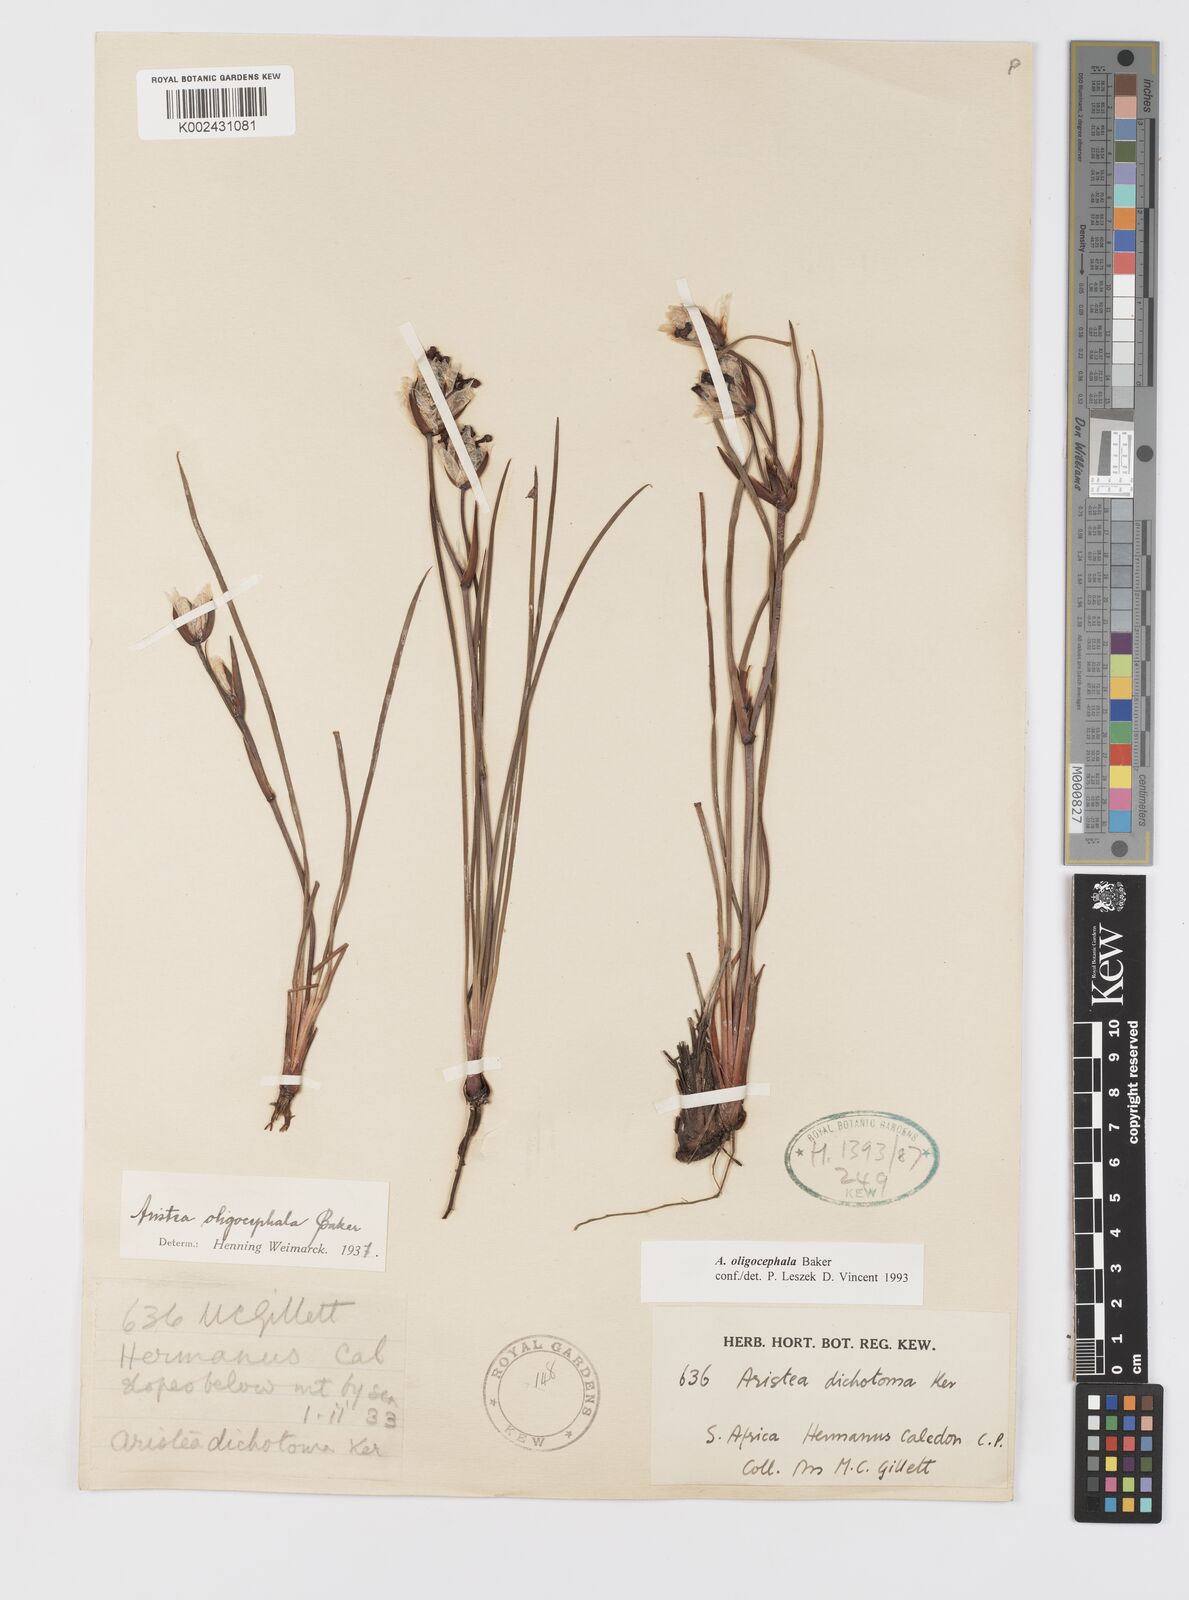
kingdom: Plantae
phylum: Tracheophyta
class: Liliopsida
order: Asparagales
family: Iridaceae
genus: Aristea
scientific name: Aristea oligocephala
